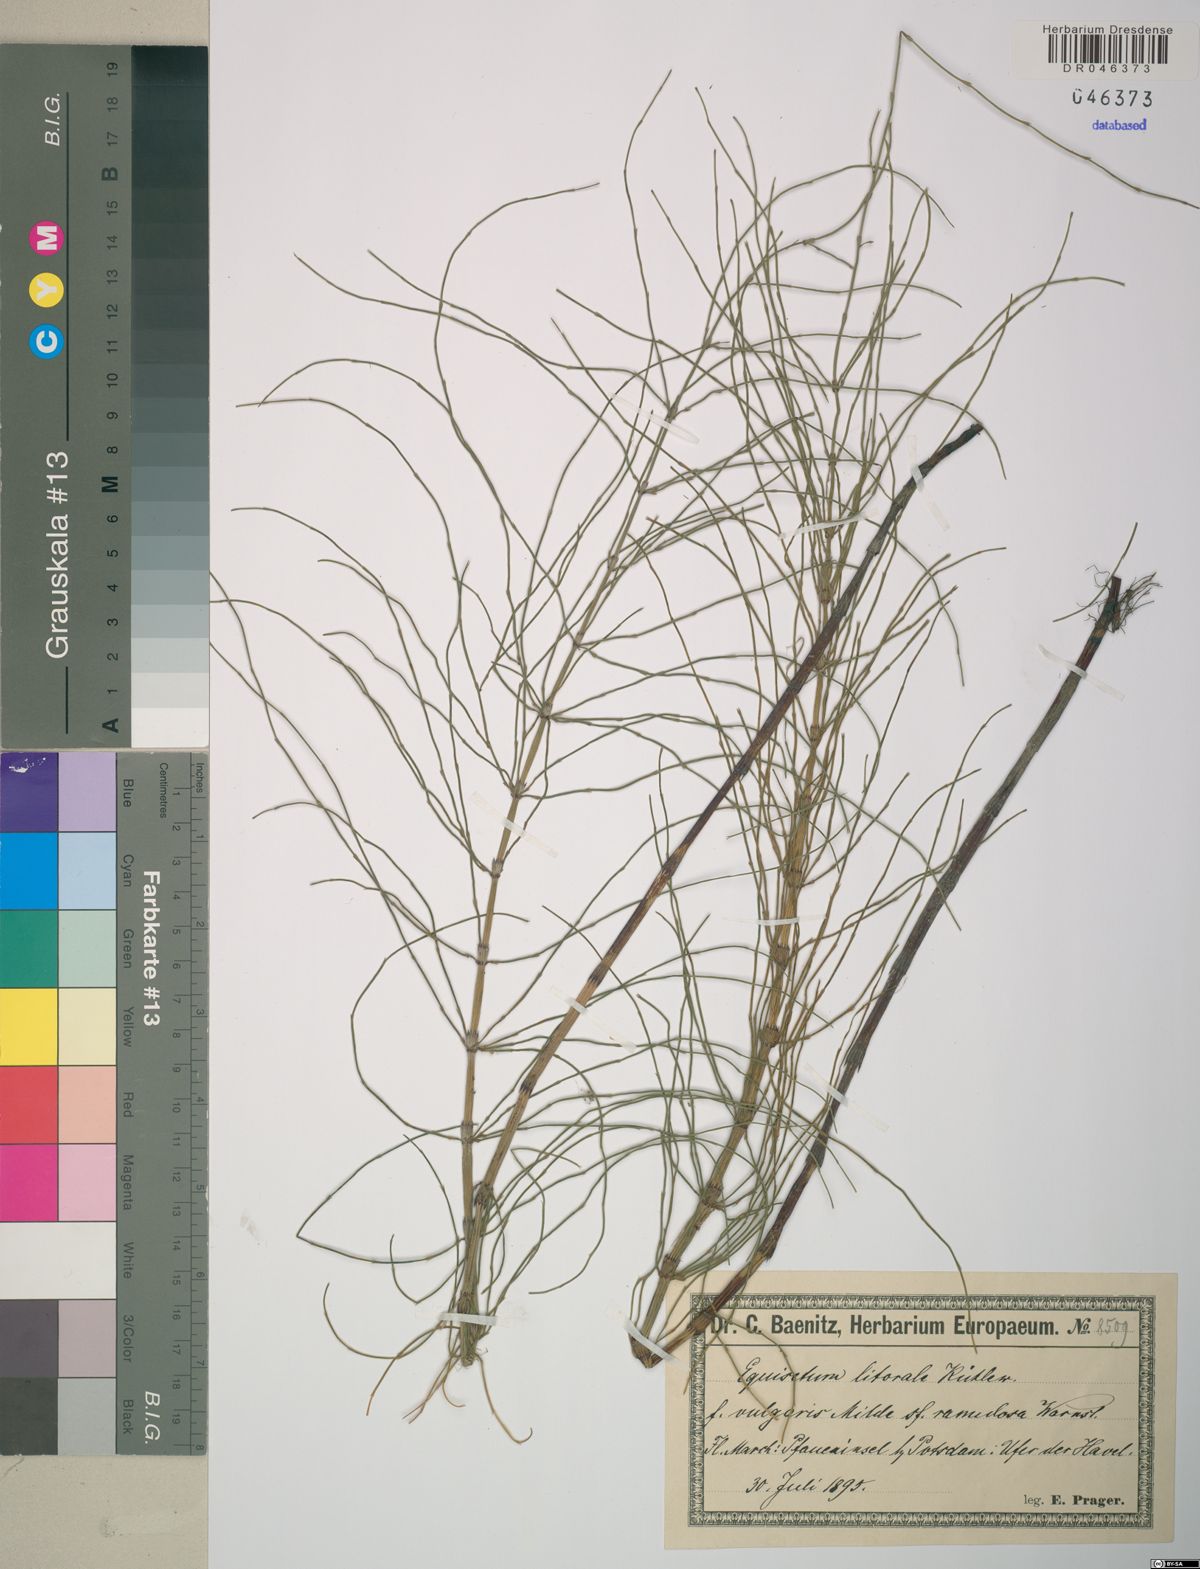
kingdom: Plantae
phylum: Tracheophyta
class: Polypodiopsida
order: Equisetales
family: Equisetaceae
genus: Equisetum
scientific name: Equisetum litorale
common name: Littoral horsetail
